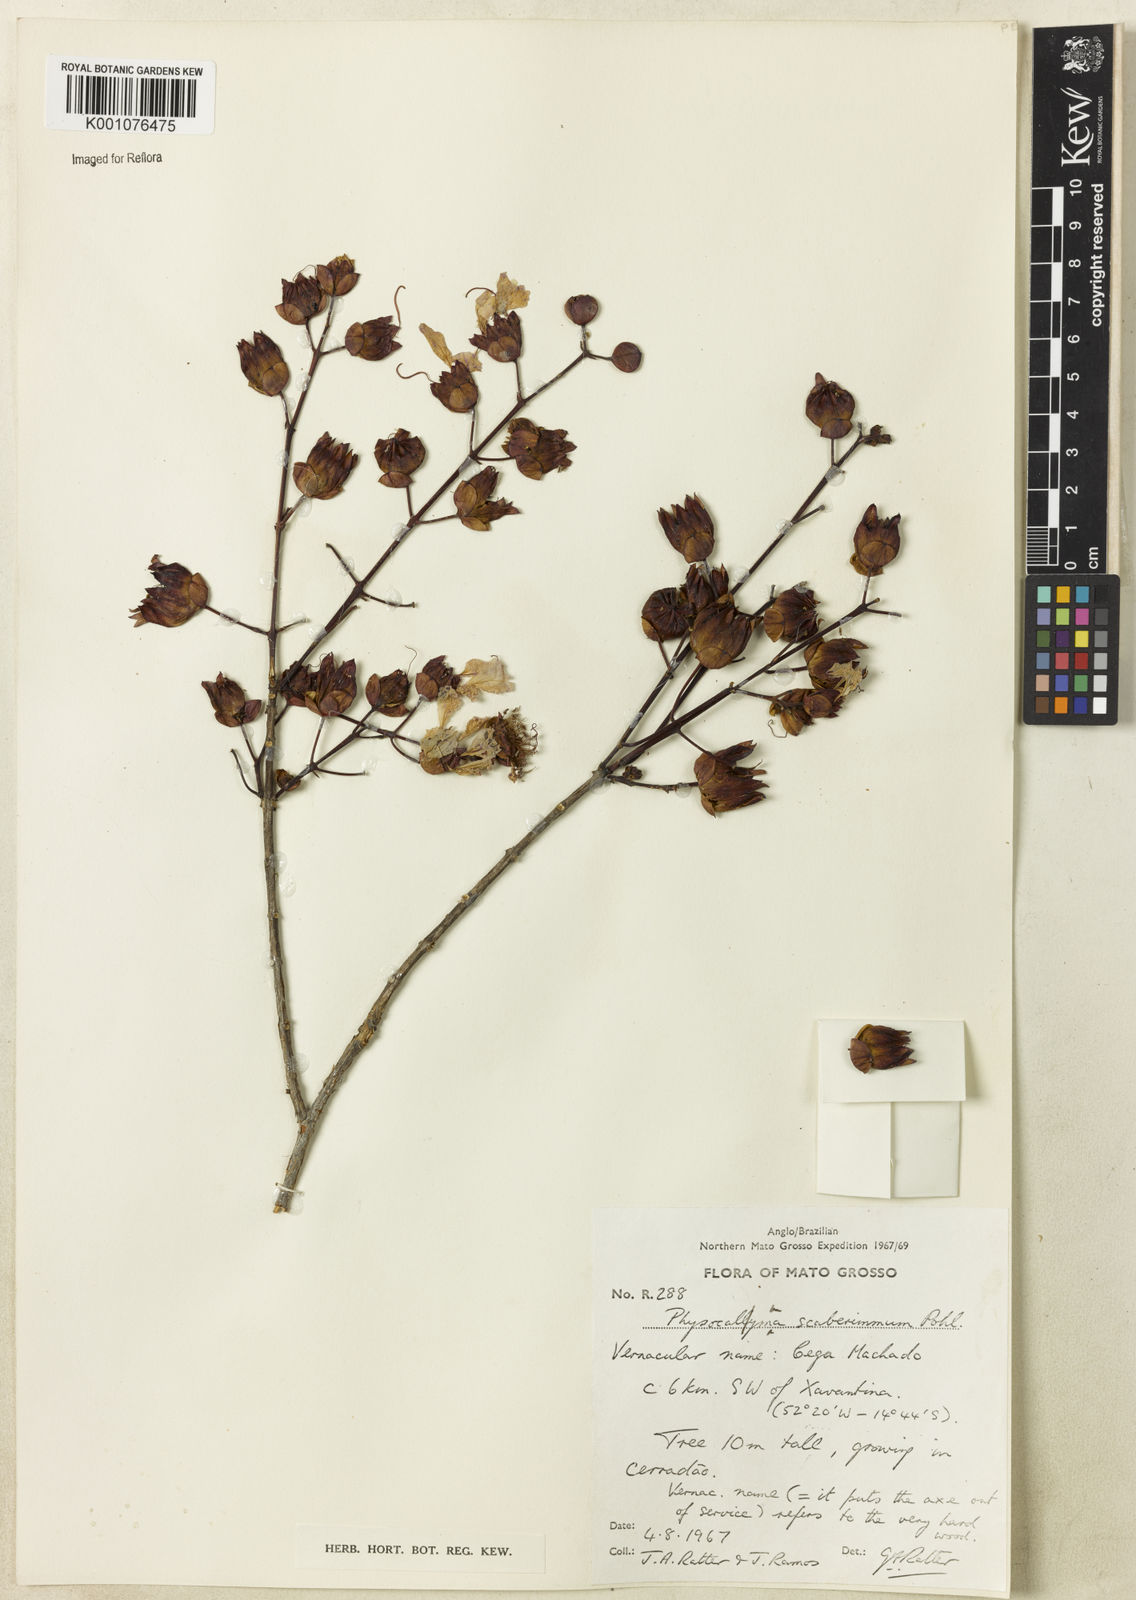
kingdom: Plantae
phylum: Tracheophyta
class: Magnoliopsida
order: Myrtales
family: Lythraceae
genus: Physocalymma
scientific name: Physocalymma scaberrimum
